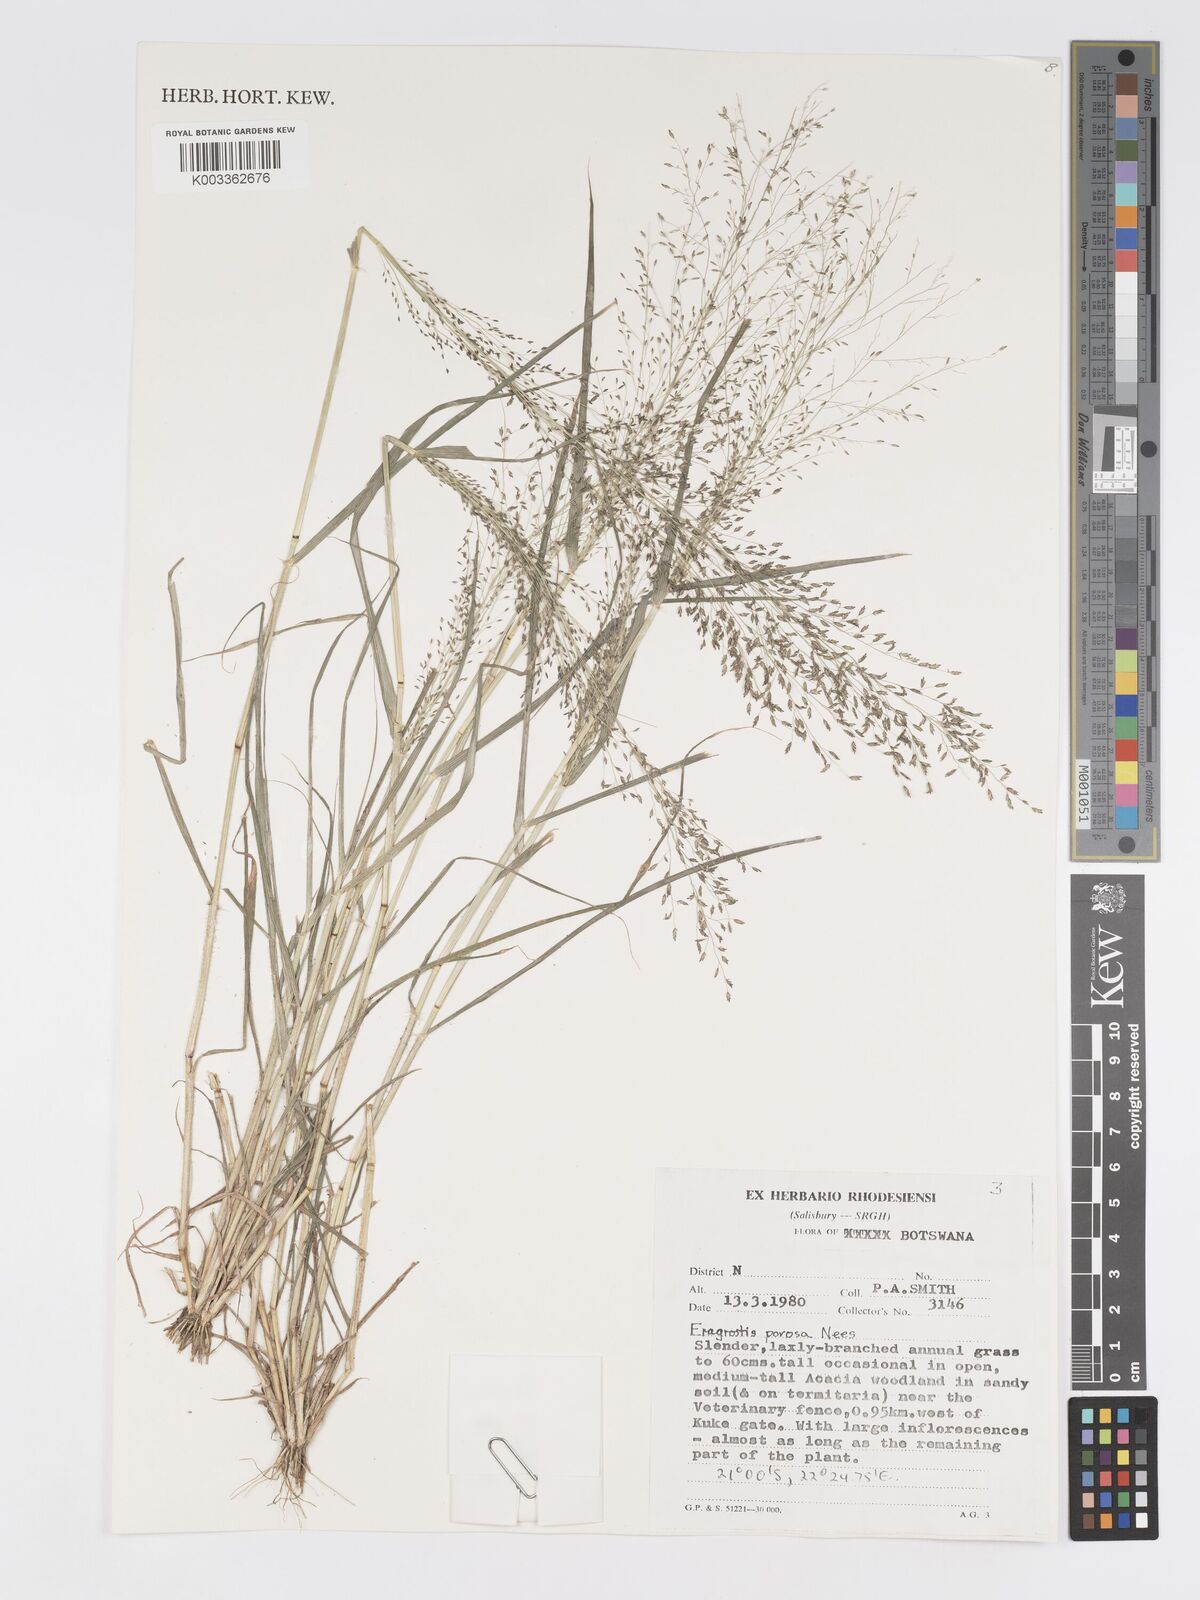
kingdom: Plantae
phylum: Tracheophyta
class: Liliopsida
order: Poales
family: Poaceae
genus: Eragrostis
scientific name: Eragrostis porosa
